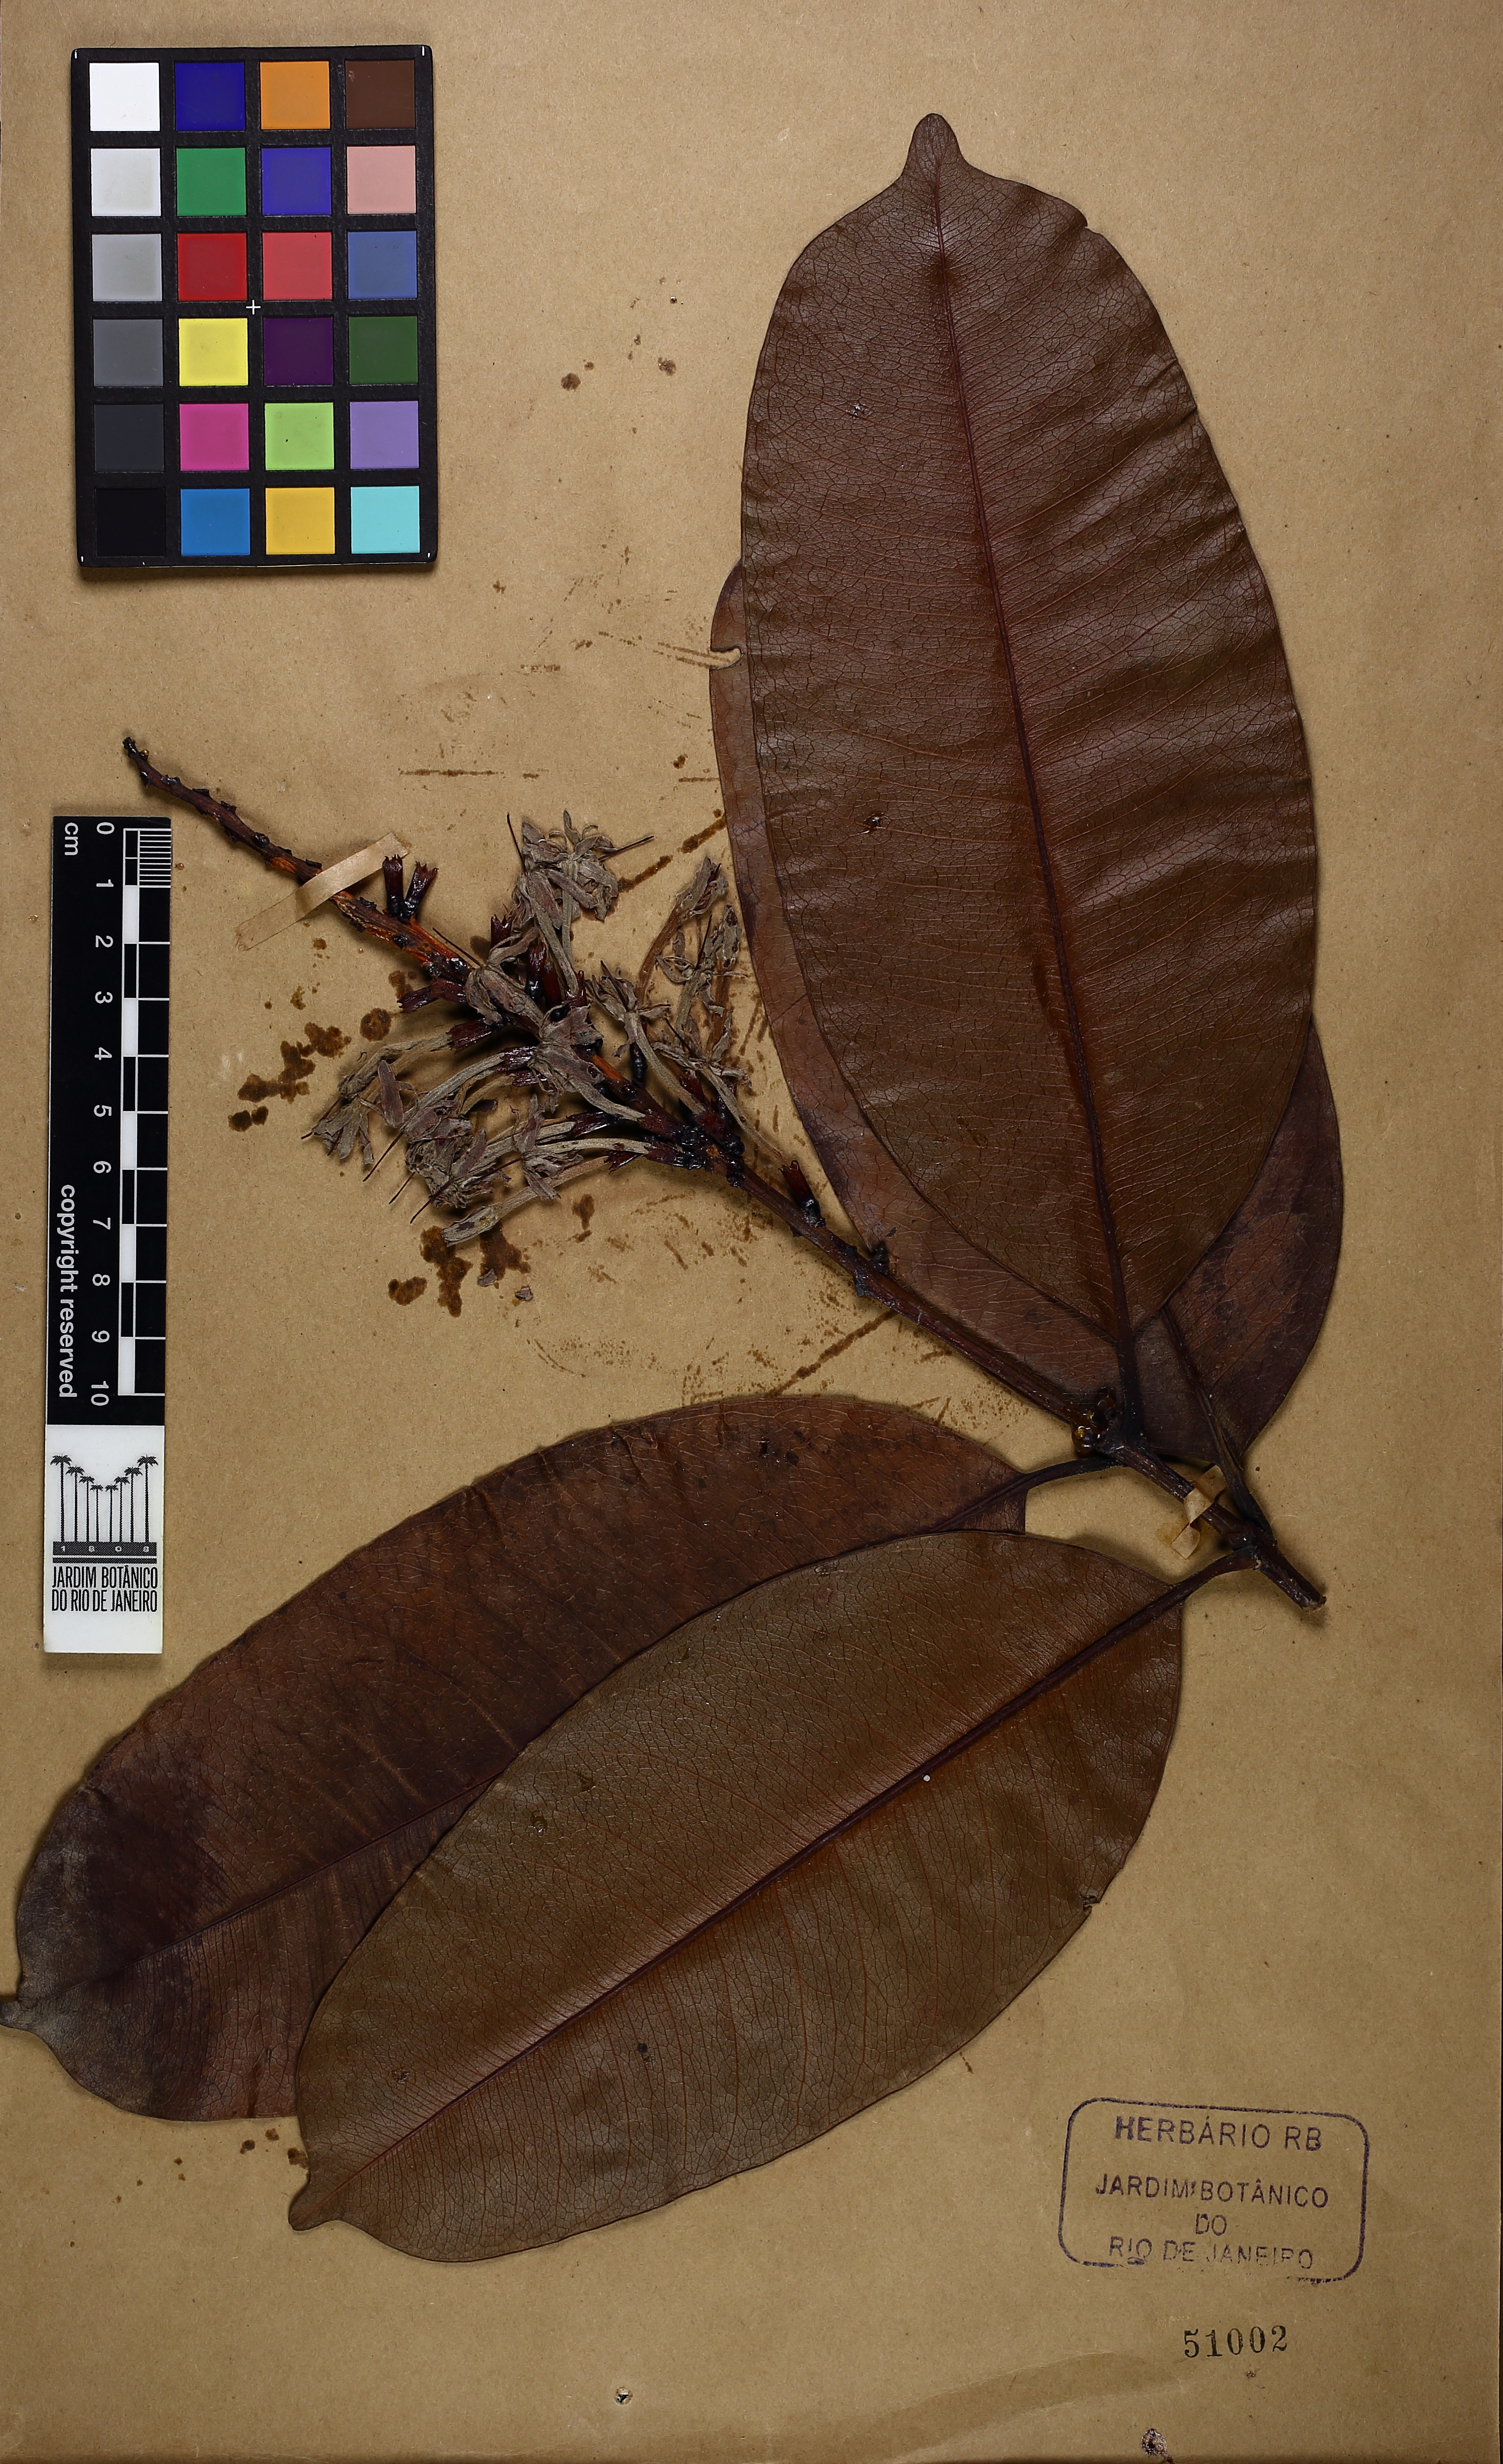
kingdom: Plantae
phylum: Tracheophyta
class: Magnoliopsida
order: Gentianales
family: Rubiaceae
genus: Retiniphyllum
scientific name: Retiniphyllum schomburgkii
